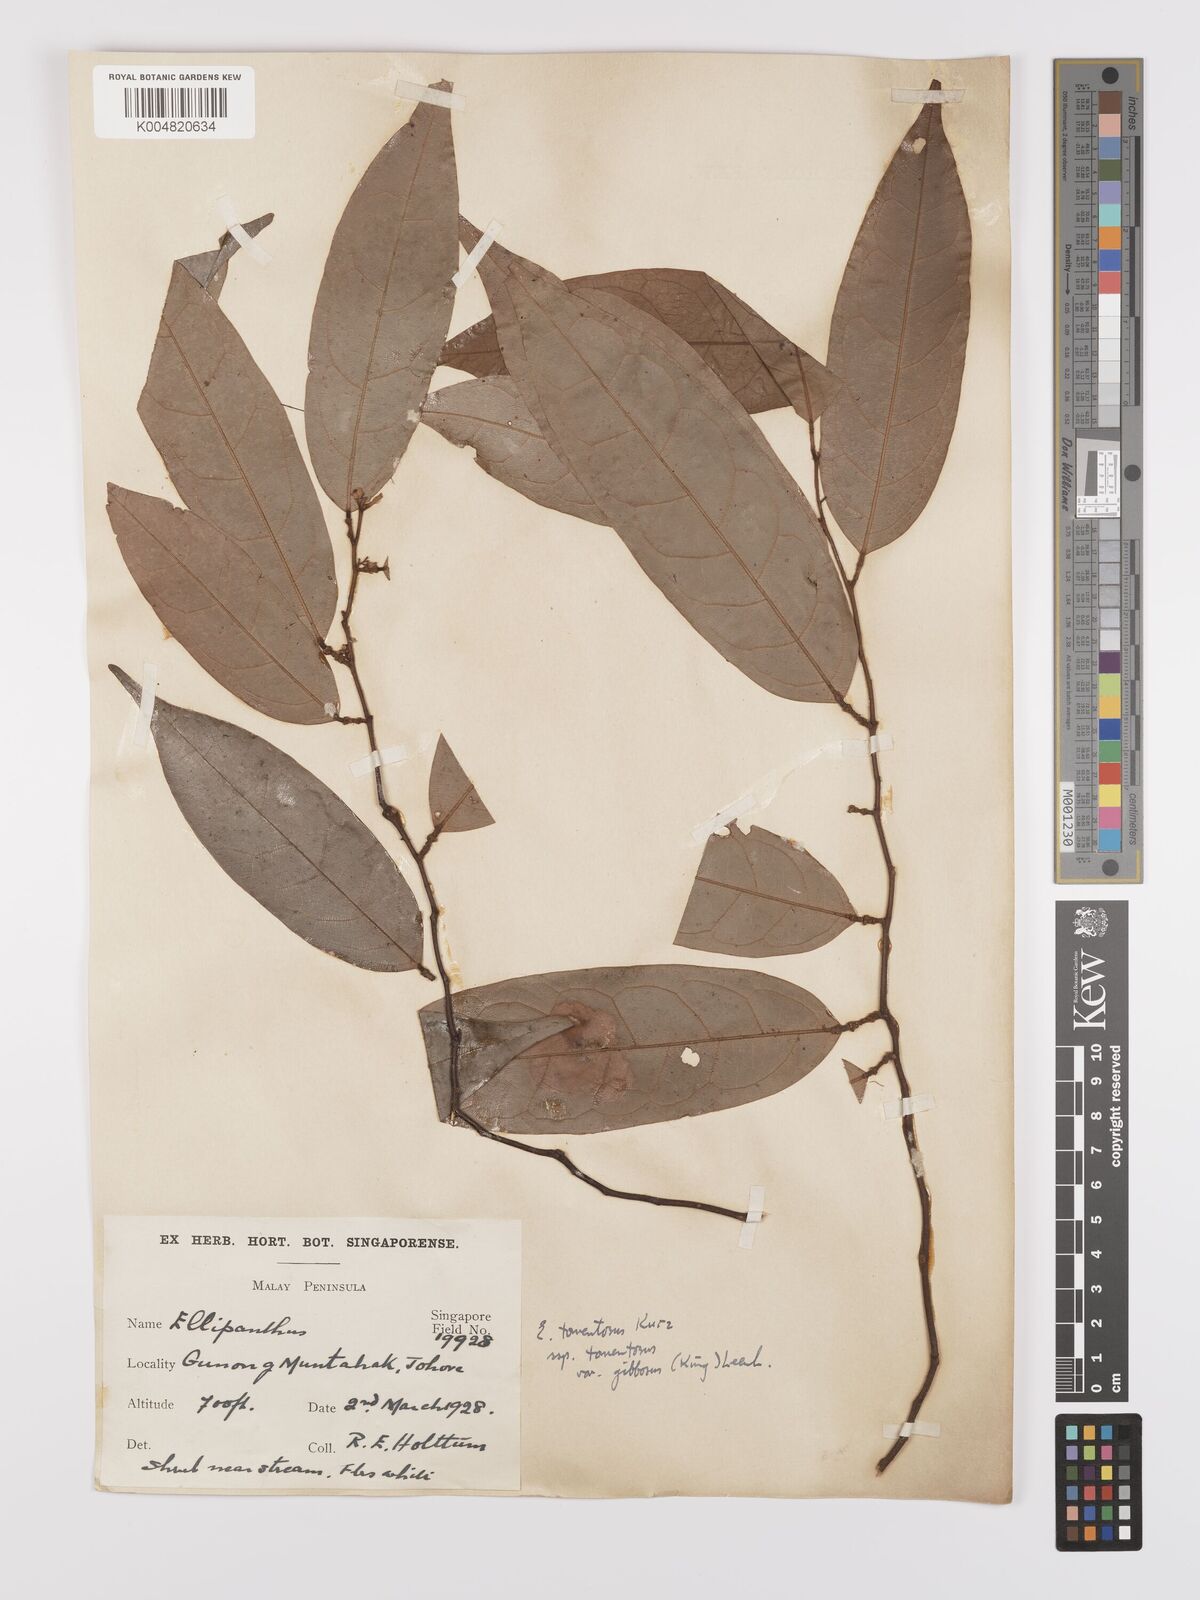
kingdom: Plantae
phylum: Tracheophyta
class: Magnoliopsida
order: Oxalidales
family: Connaraceae
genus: Ellipanthus
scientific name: Ellipanthus tomentosus
